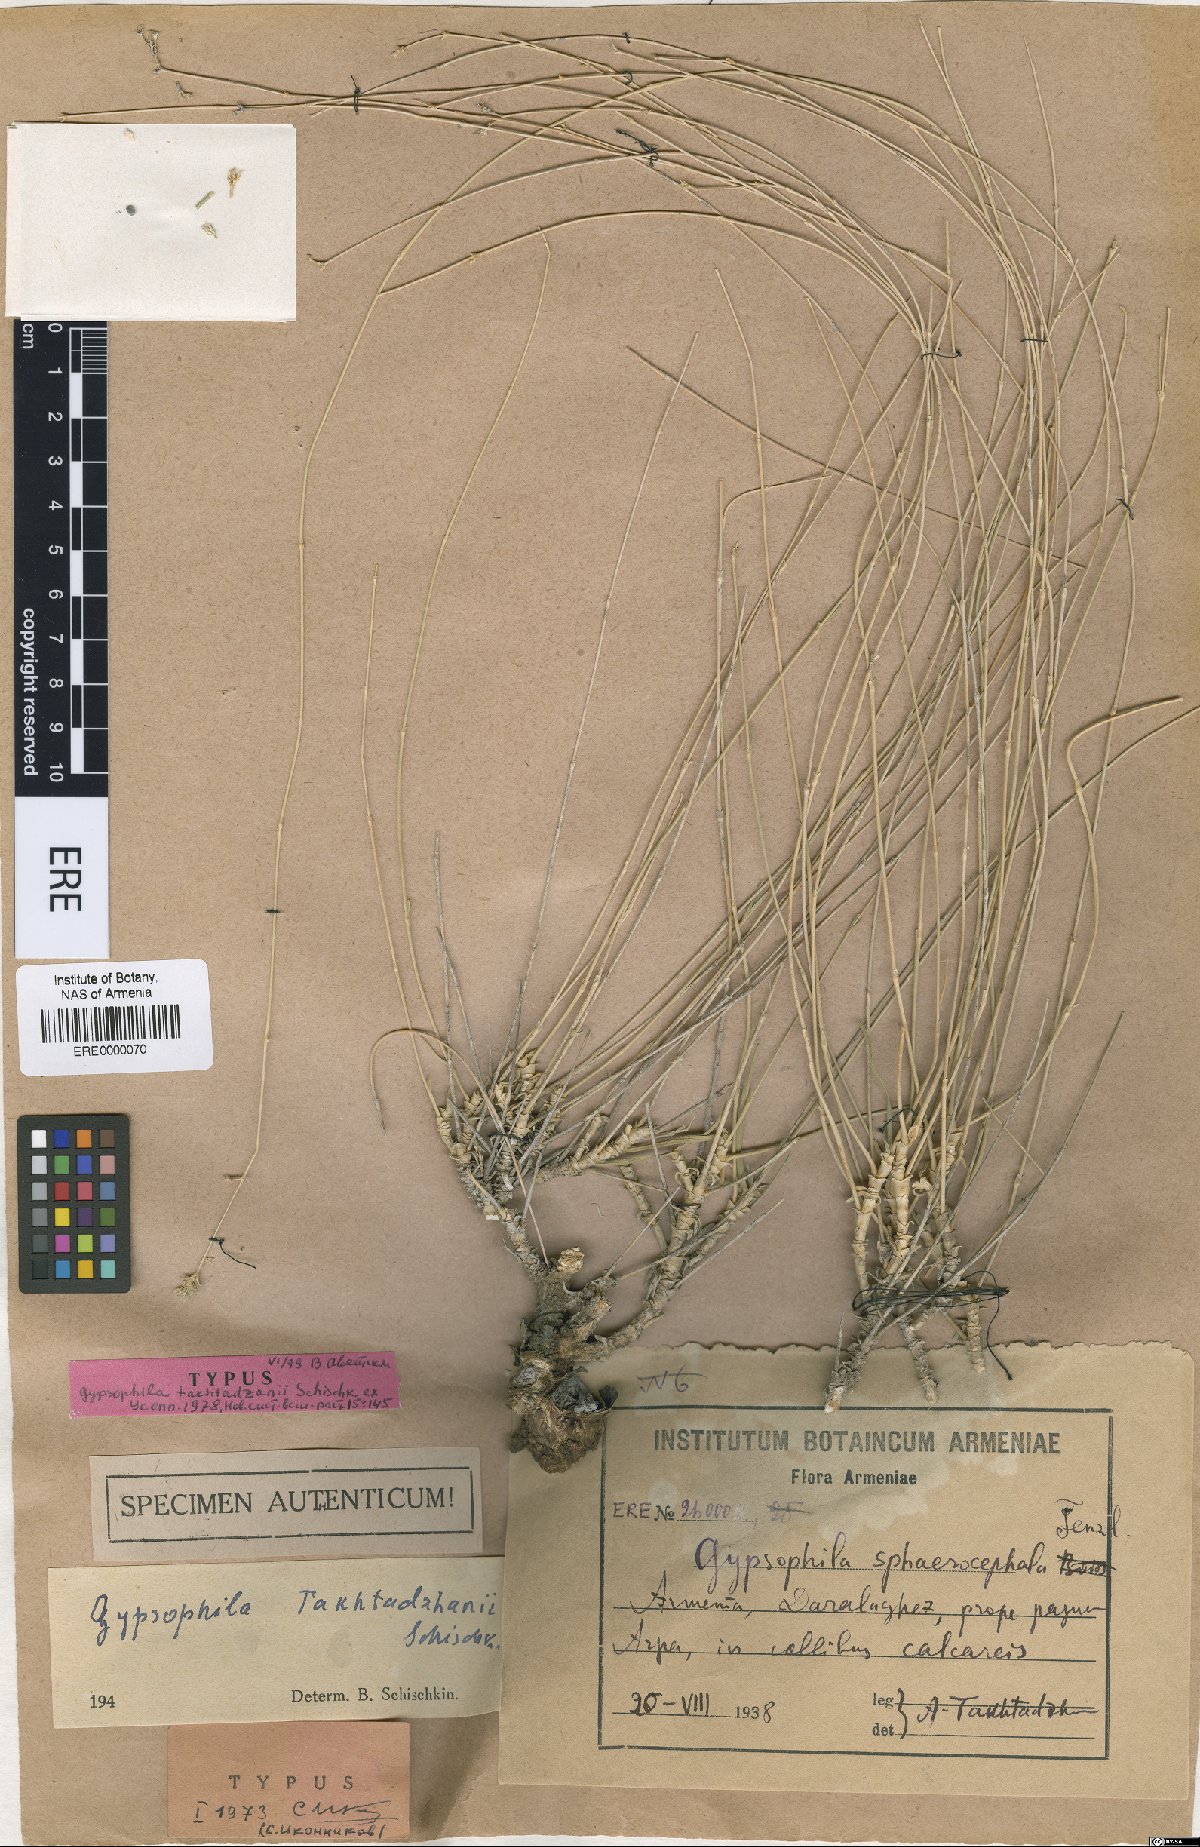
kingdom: Plantae
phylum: Tracheophyta
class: Magnoliopsida
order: Caryophyllales
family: Caryophyllaceae
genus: Gypsophila
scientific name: Gypsophila takhtadzhanii
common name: Takhtadjan's gypsophyla
